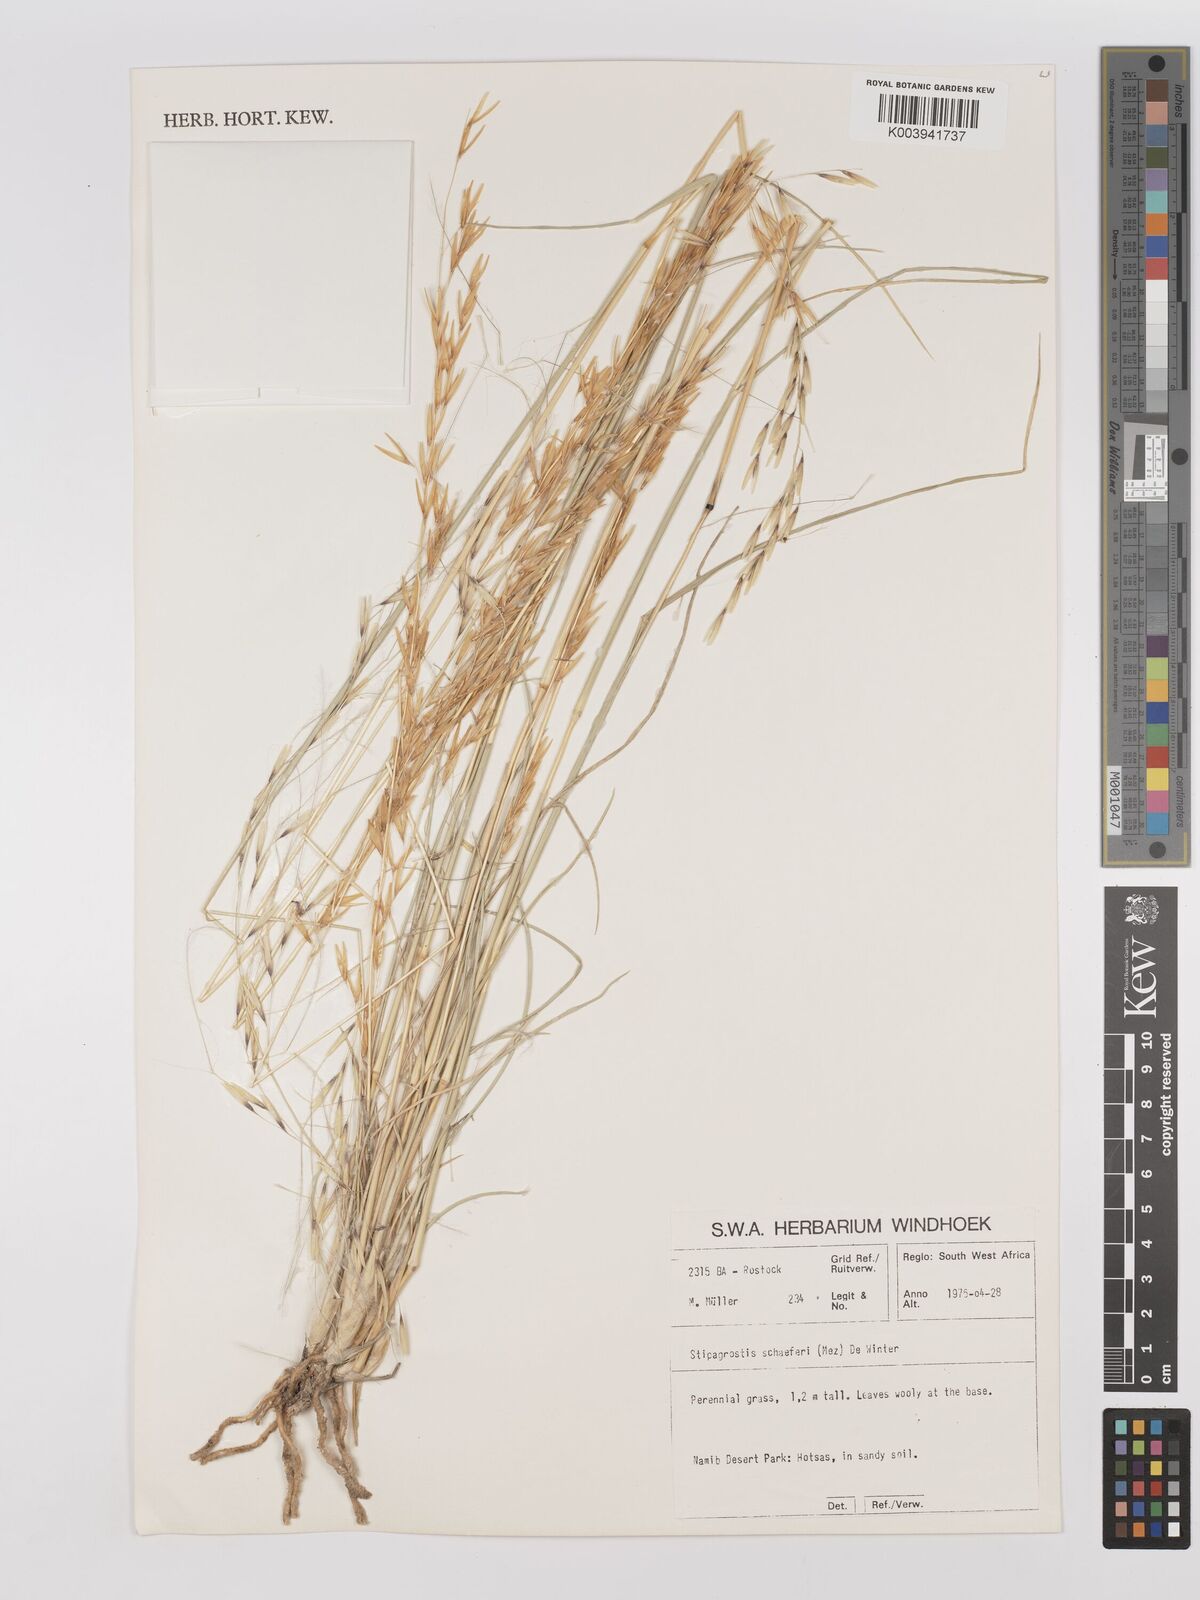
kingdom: Plantae
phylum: Tracheophyta
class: Liliopsida
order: Poales
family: Poaceae
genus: Stipagrostis
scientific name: Stipagrostis schaeferi
